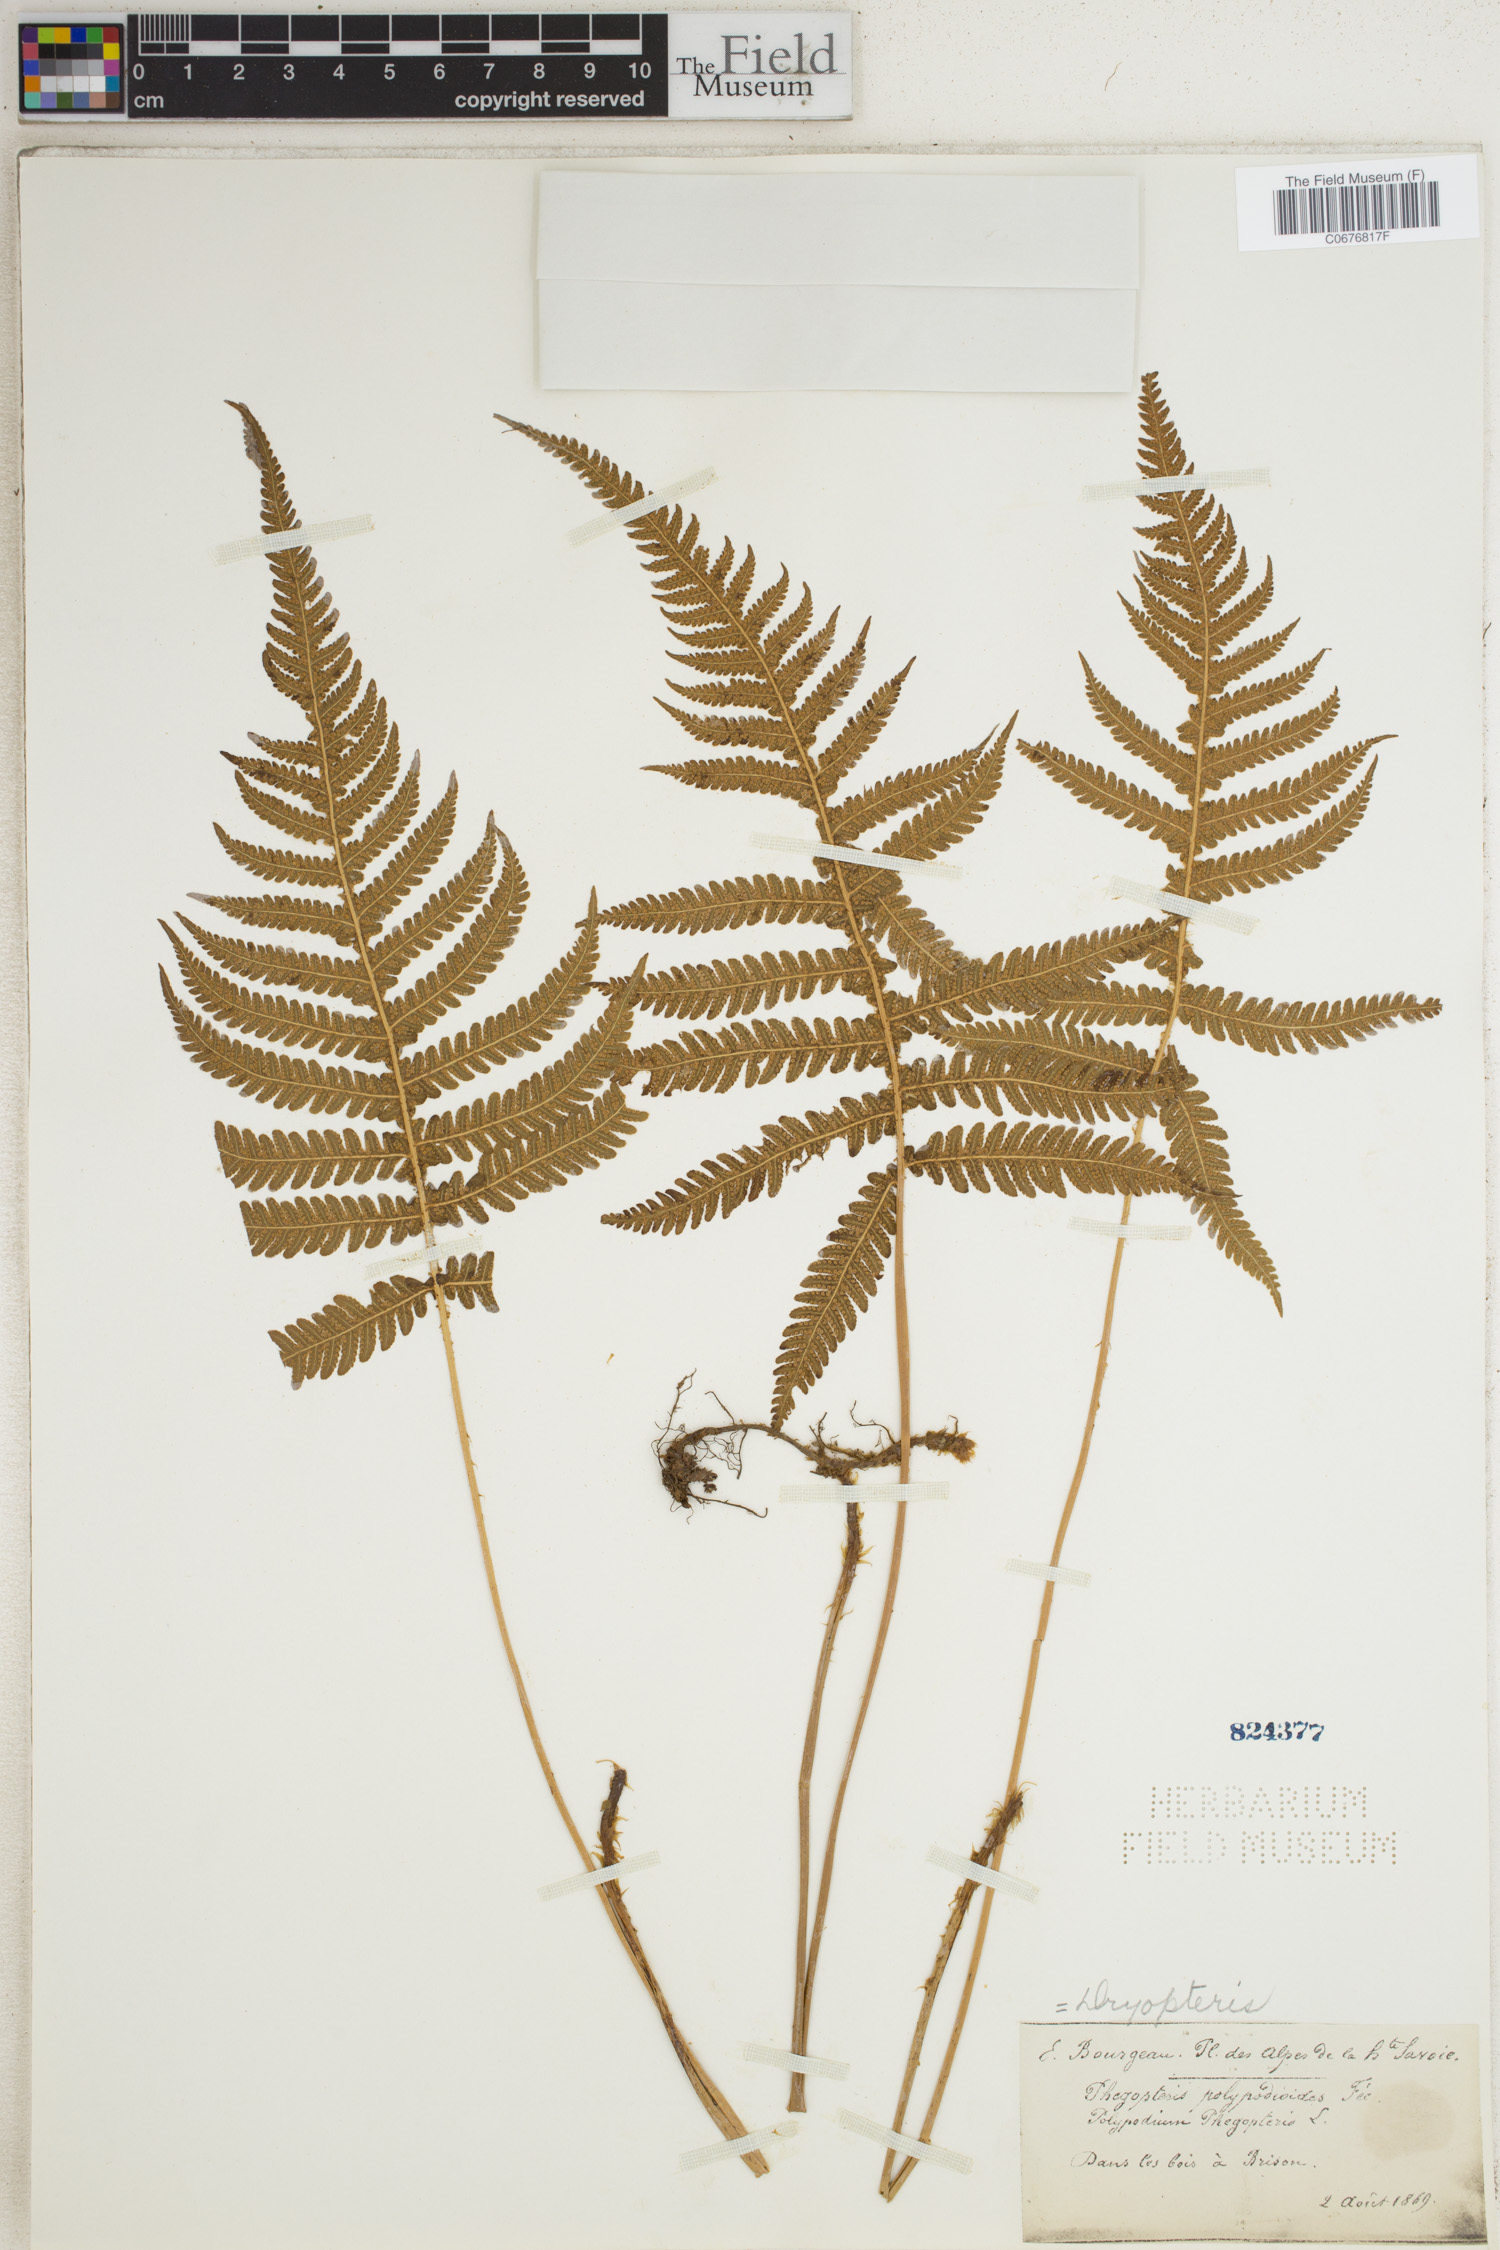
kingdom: Plantae
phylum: Tracheophyta
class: Polypodiopsida
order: Polypodiales
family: Thelypteridaceae
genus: Phegopteris
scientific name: Phegopteris connectilis
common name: Beech fern
